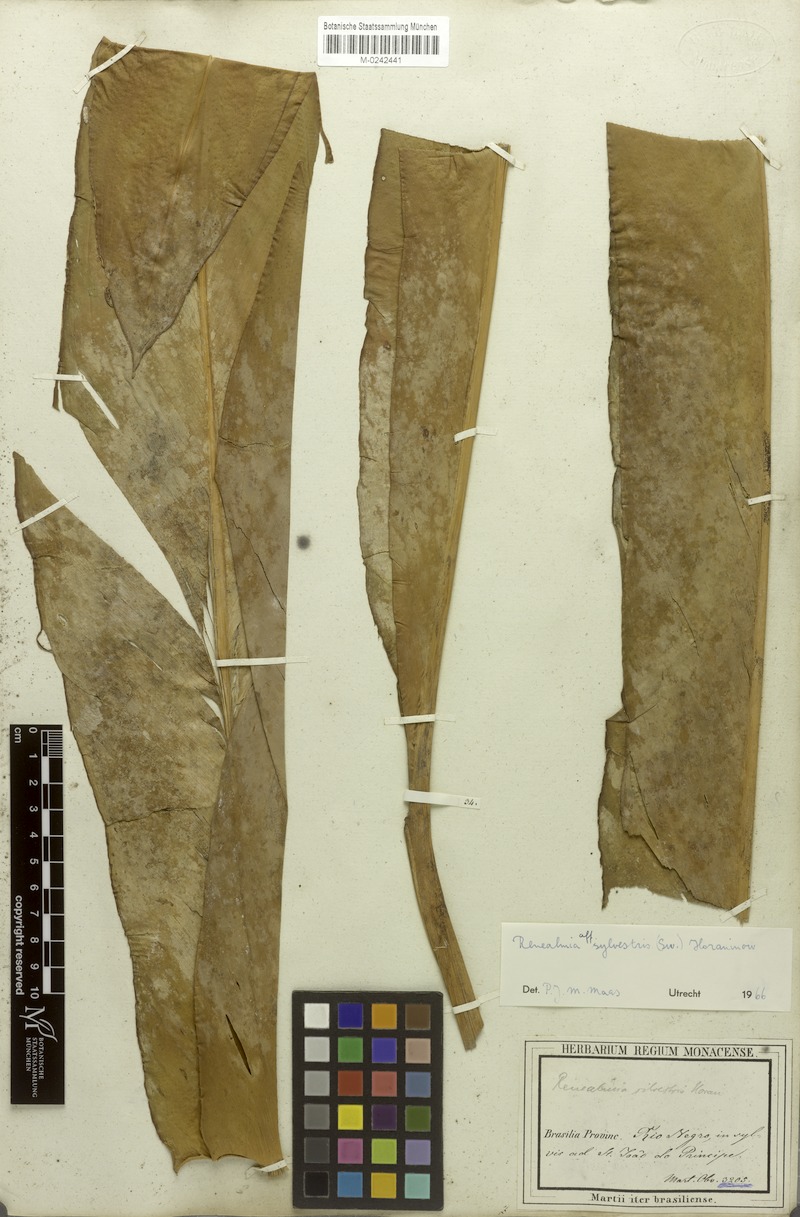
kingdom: Plantae
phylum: Tracheophyta
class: Liliopsida
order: Zingiberales
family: Zingiberaceae
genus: Renealmia
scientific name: Renealmia striata
